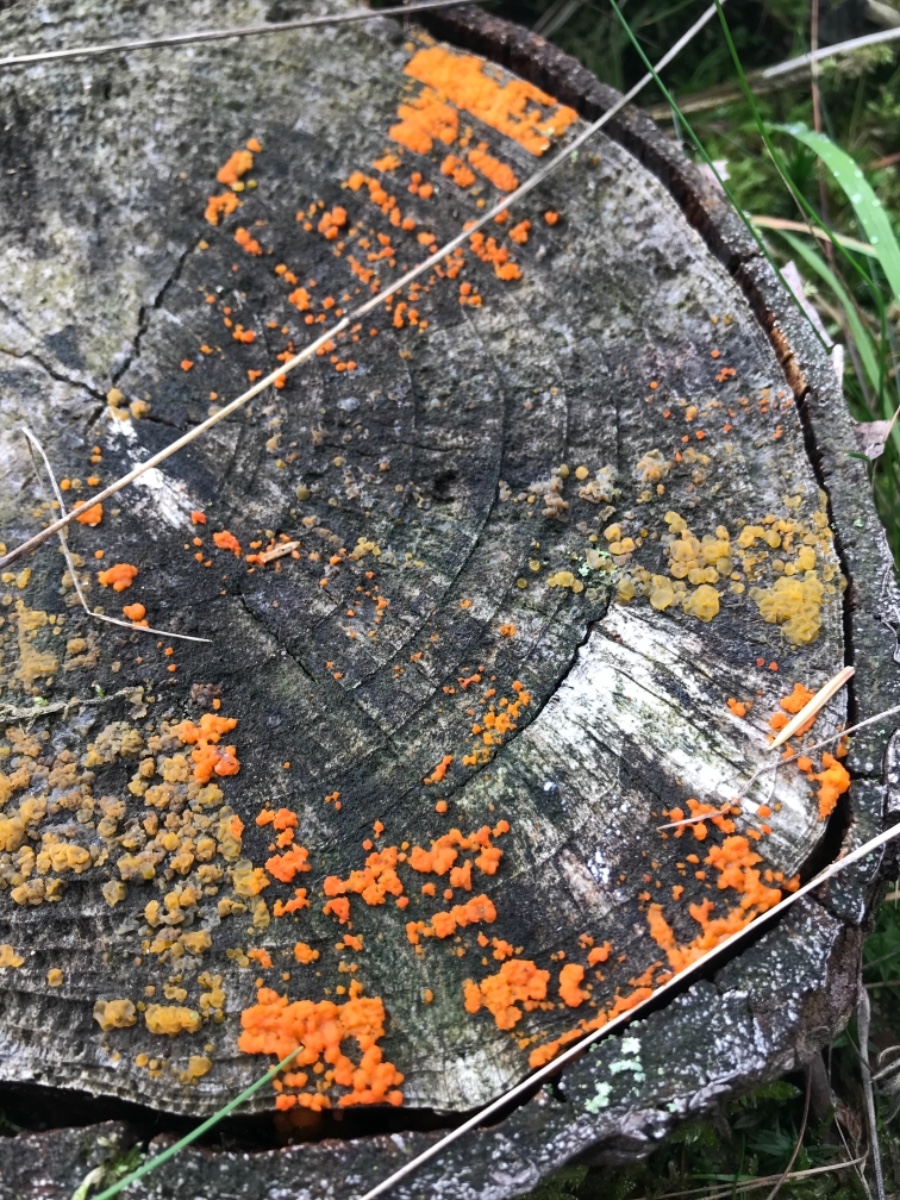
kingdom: Fungi
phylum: Basidiomycota
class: Dacrymycetes
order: Dacrymycetales
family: Dacrymycetaceae
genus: Dacrymyces
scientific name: Dacrymyces stillatus
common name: almindelig tåresvamp
